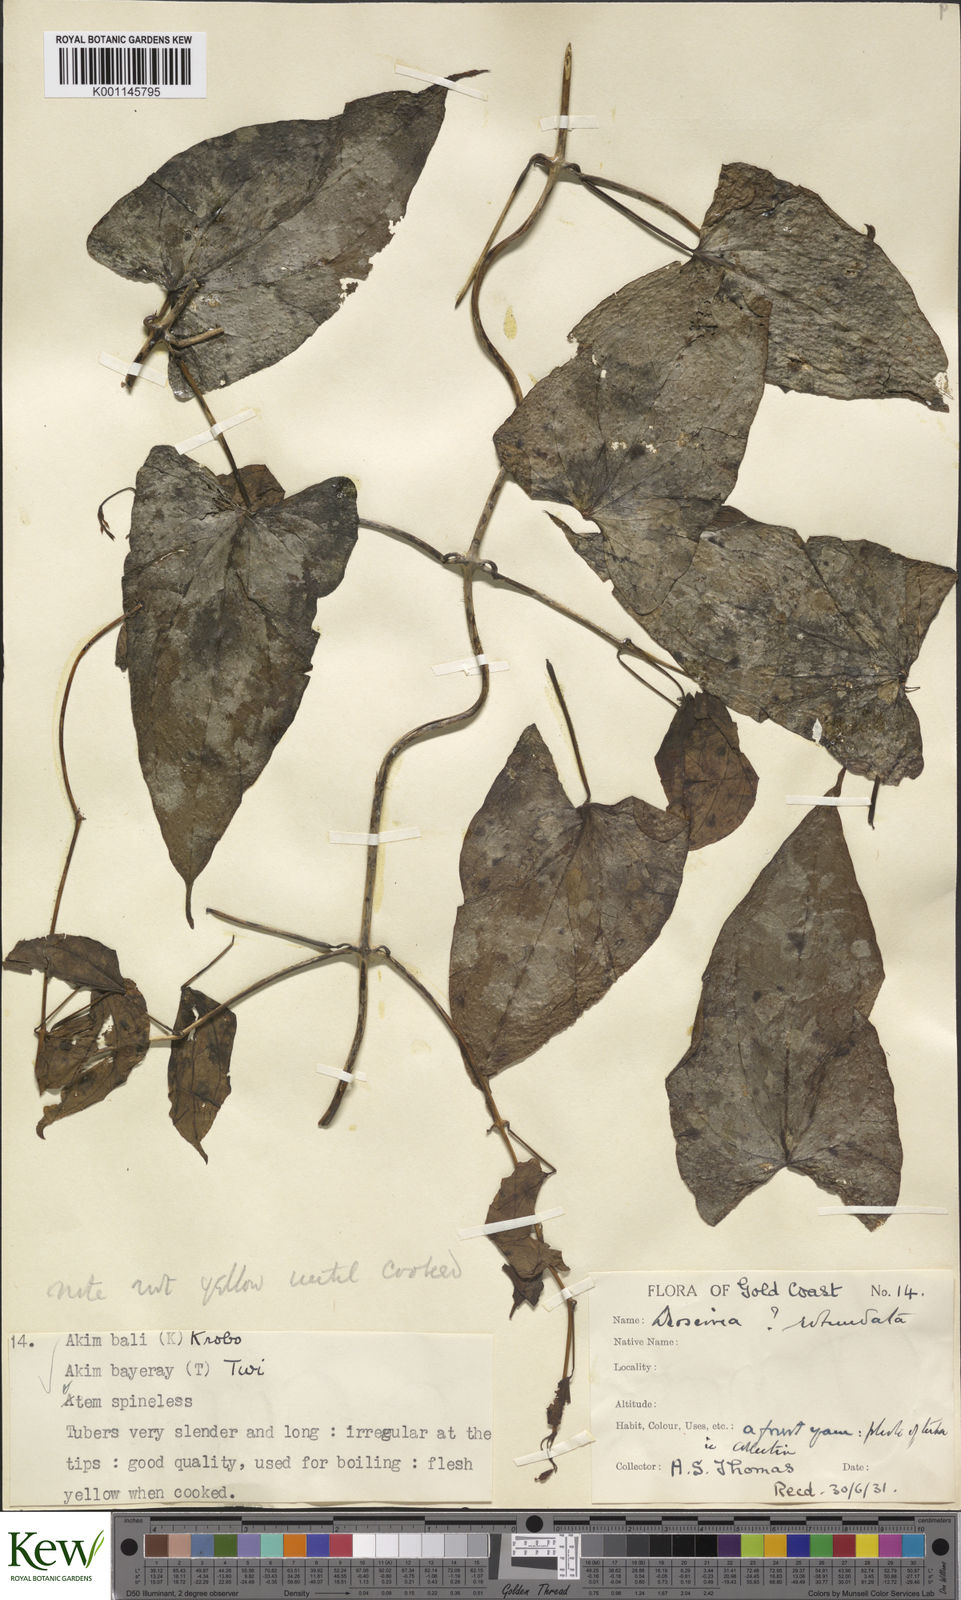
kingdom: Plantae
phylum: Tracheophyta
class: Liliopsida
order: Dioscoreales
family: Dioscoreaceae
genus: Dioscorea
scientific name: Dioscorea cayenensis
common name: Attoto yam
